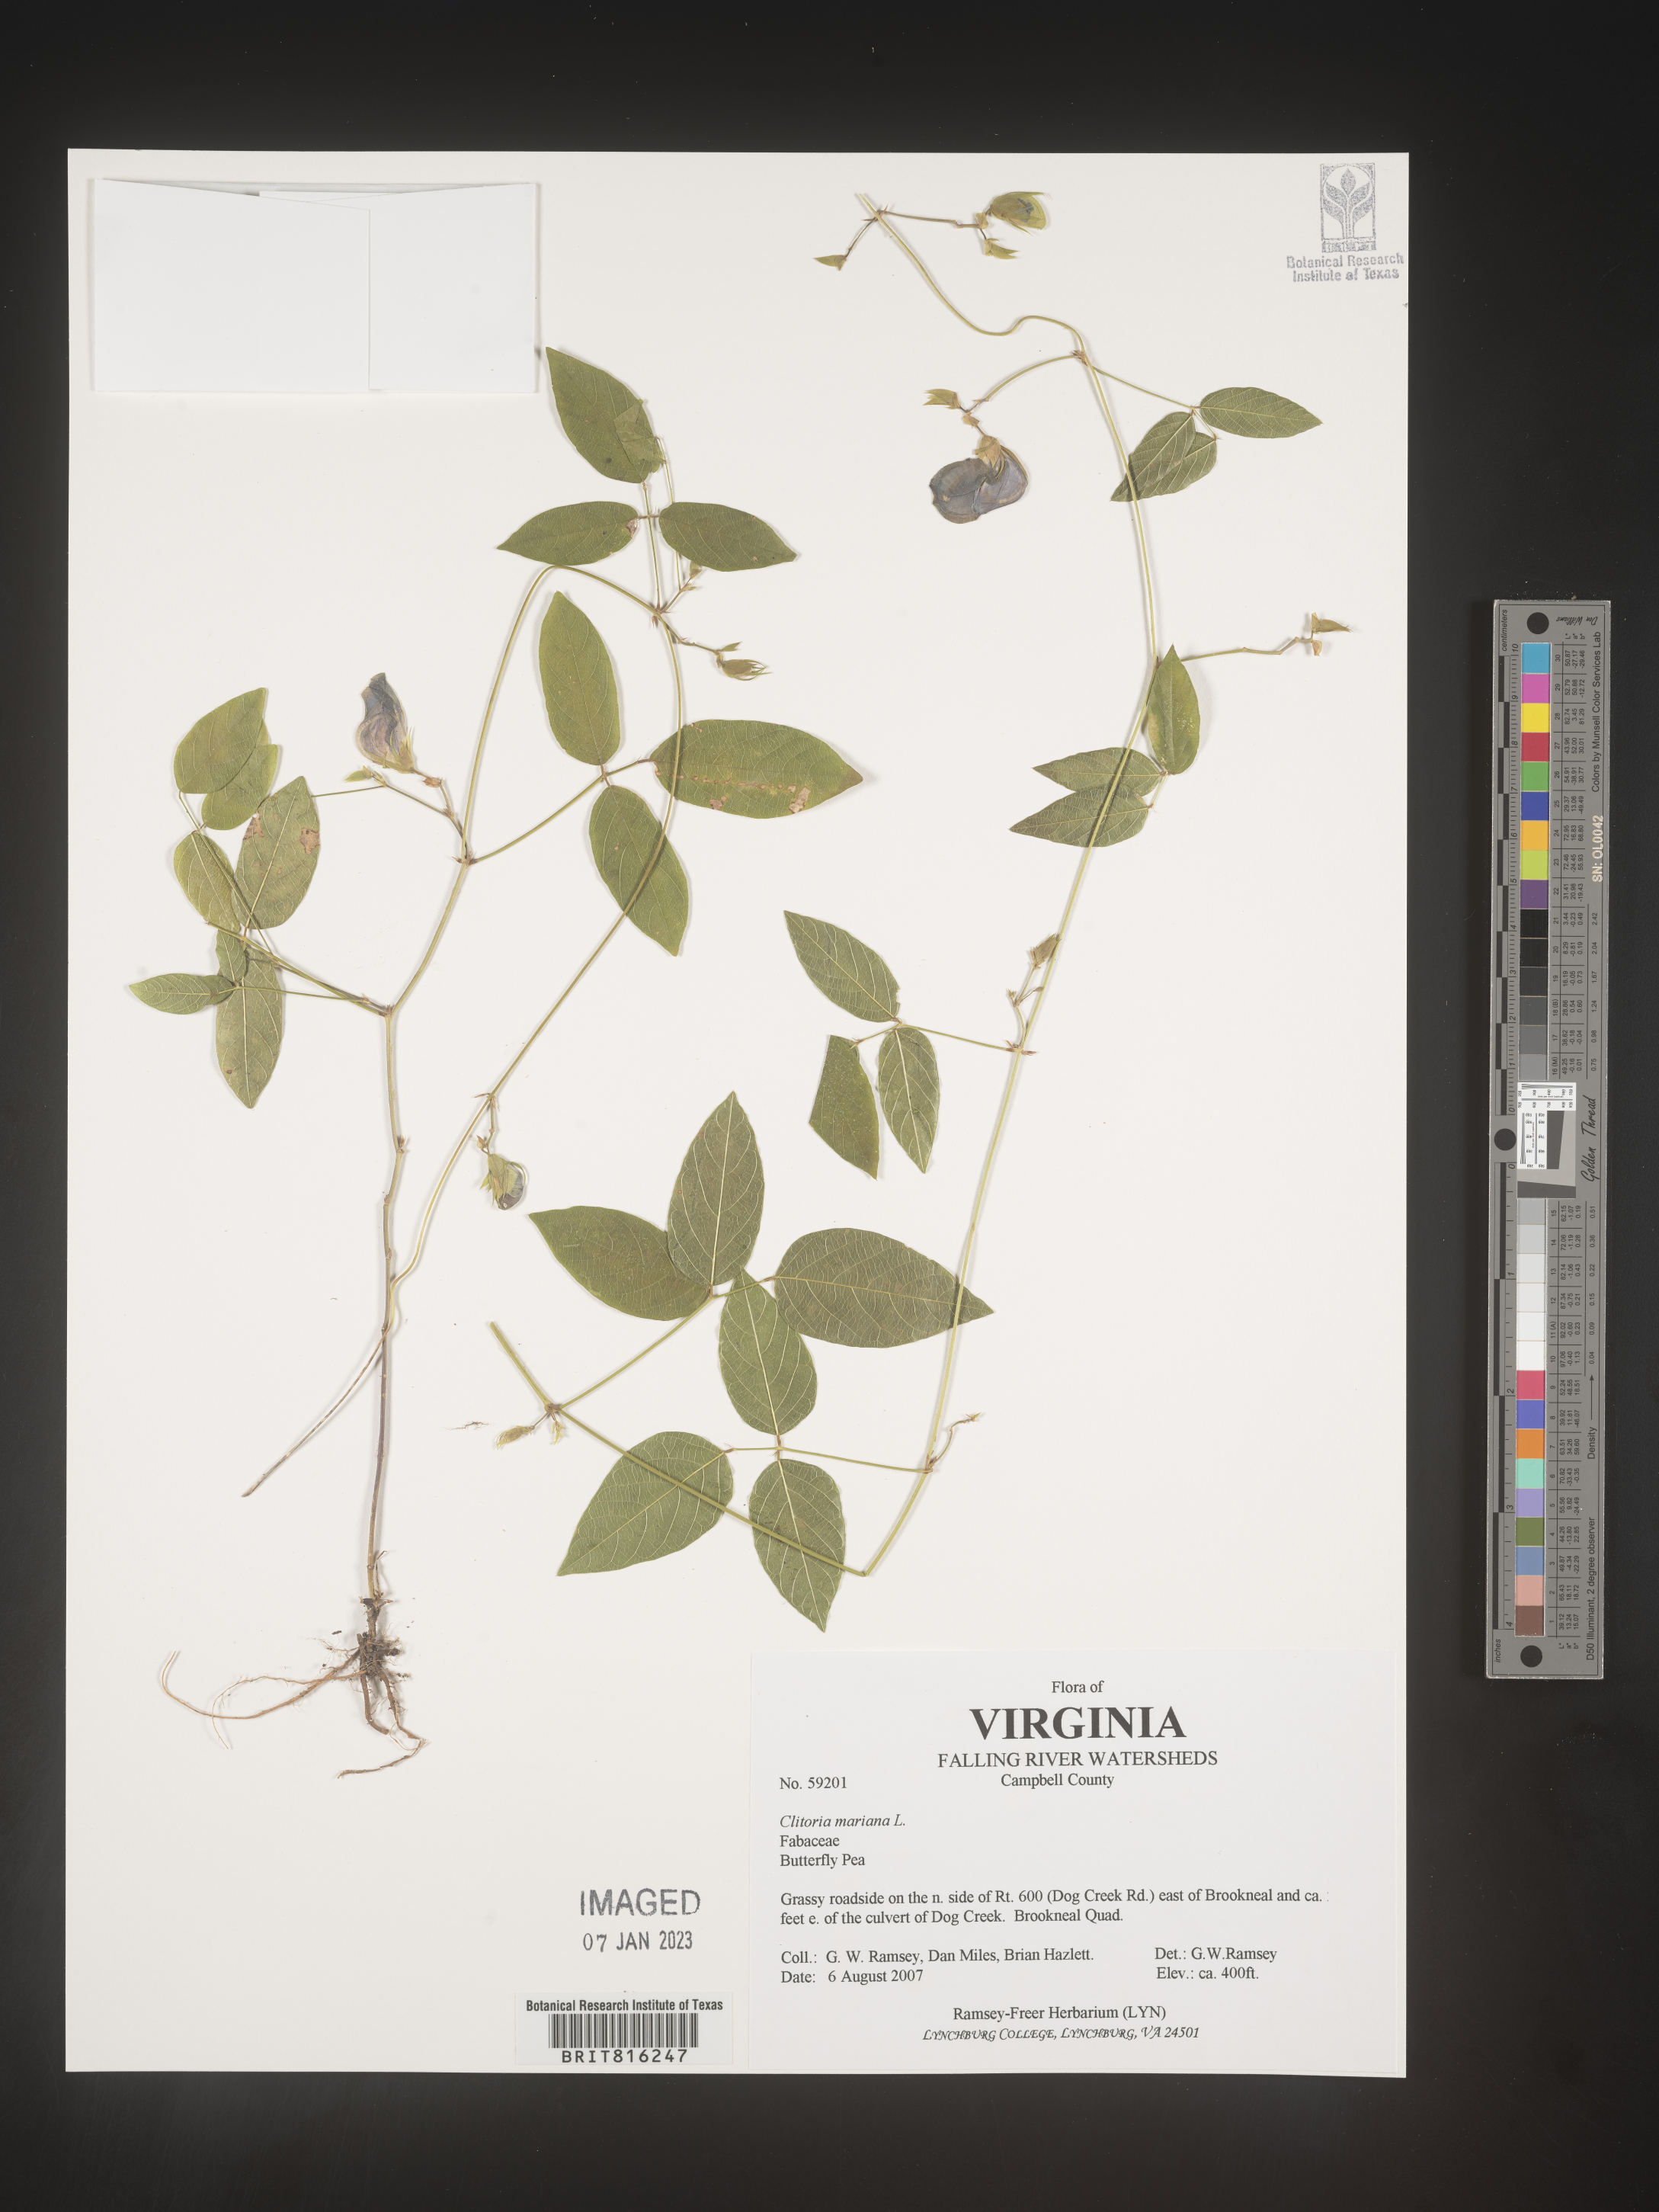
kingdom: Plantae
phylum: Tracheophyta
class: Magnoliopsida
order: Fabales
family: Fabaceae
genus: Clitoria
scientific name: Clitoria mariana
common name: Butterfly-pea
